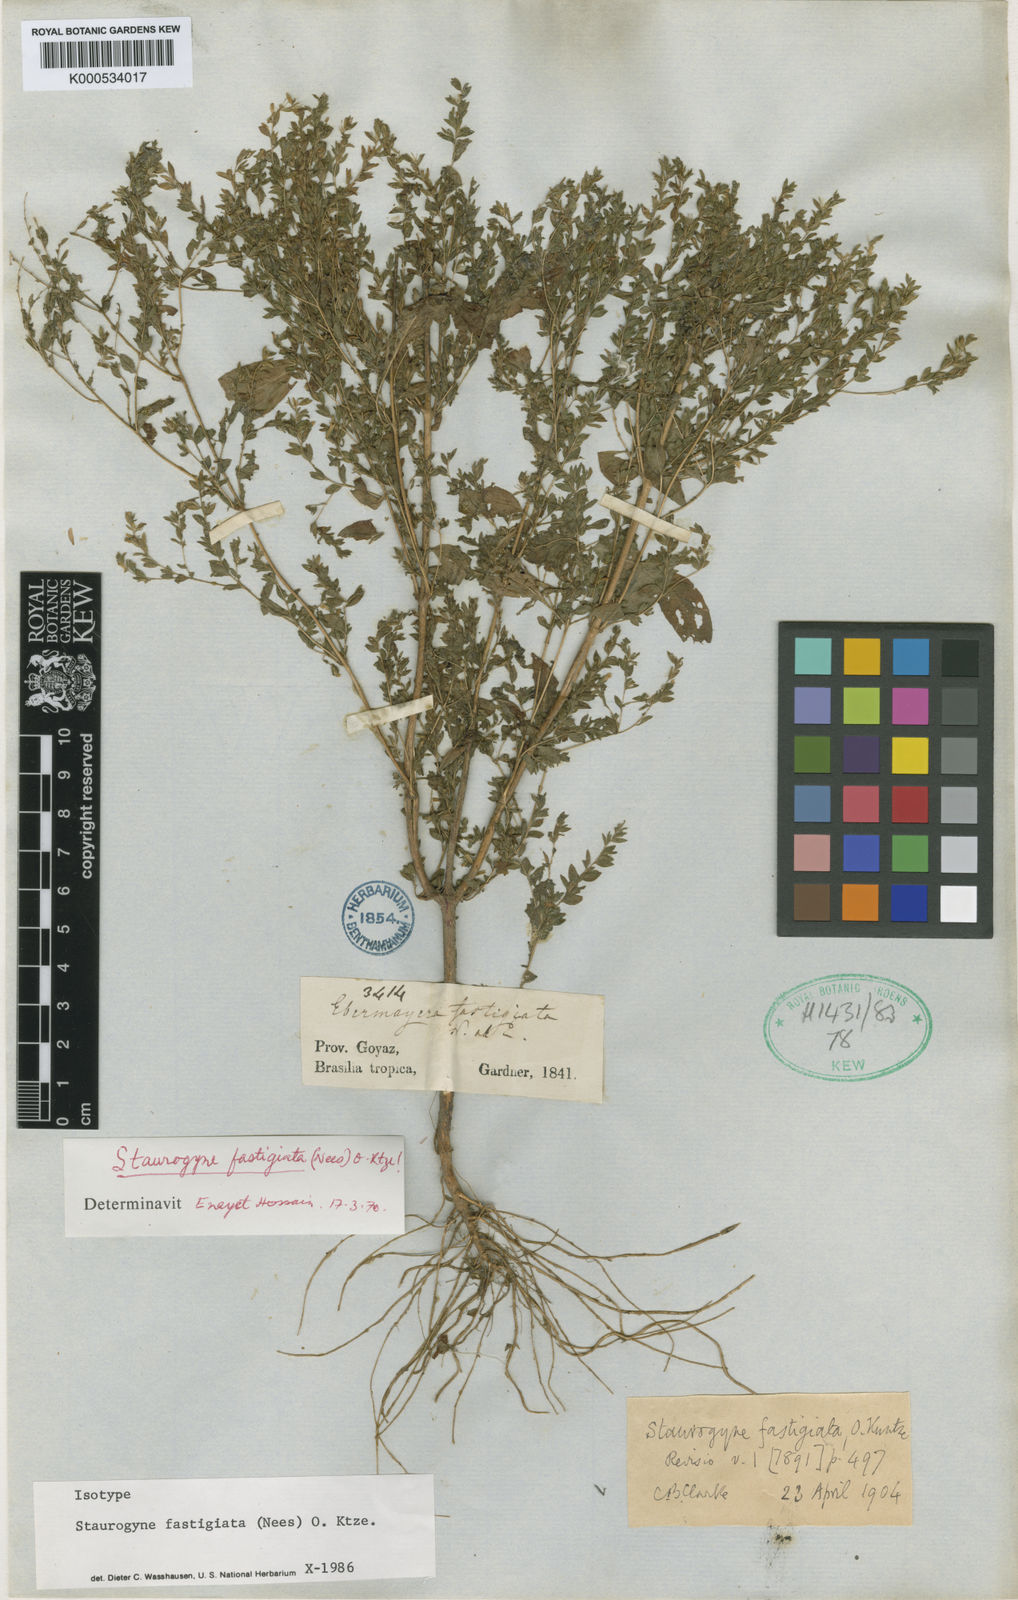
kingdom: Plantae
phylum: Tracheophyta
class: Magnoliopsida
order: Lamiales
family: Acanthaceae
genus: Staurogyne
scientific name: Staurogyne fastigiata
